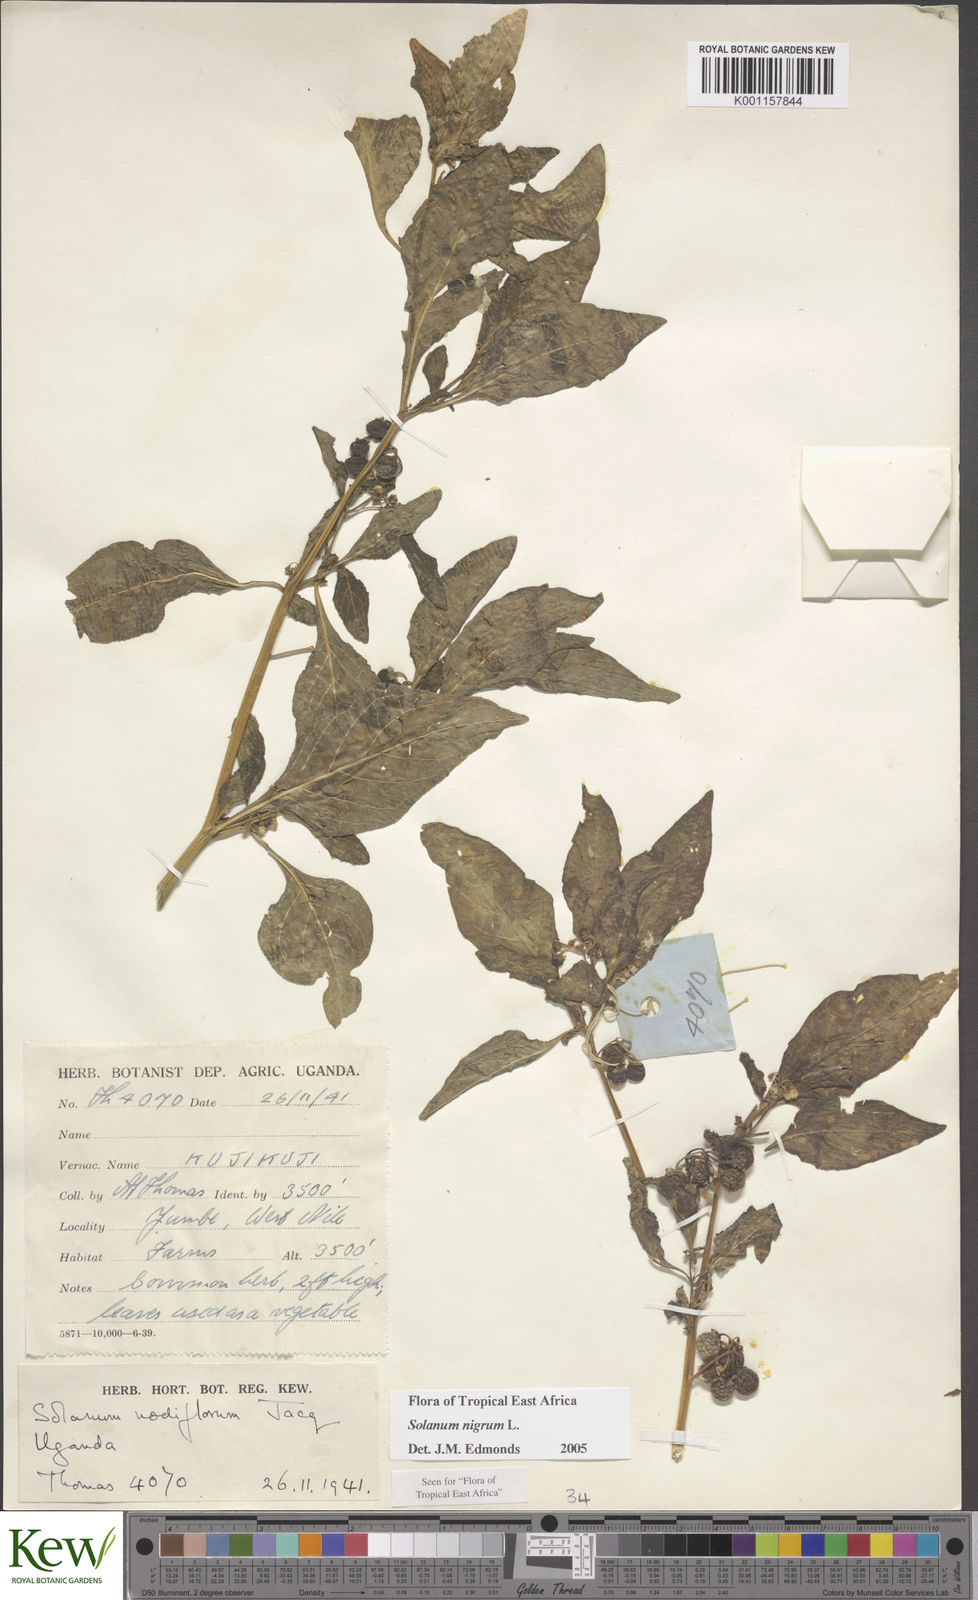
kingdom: Plantae
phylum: Tracheophyta
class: Magnoliopsida
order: Solanales
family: Solanaceae
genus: Solanum
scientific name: Solanum nigrum
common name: Black nightshade
